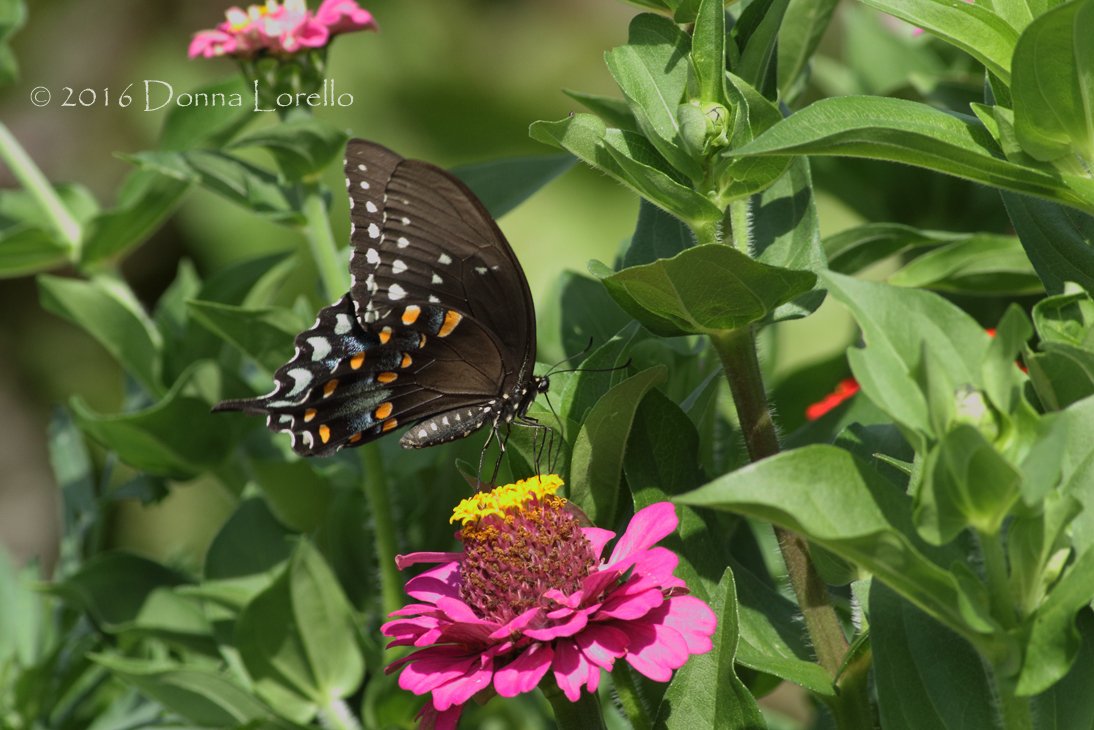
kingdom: Animalia
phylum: Arthropoda
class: Insecta
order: Lepidoptera
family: Papilionidae
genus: Pterourus
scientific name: Pterourus troilus
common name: Spicebush Swallowtail
